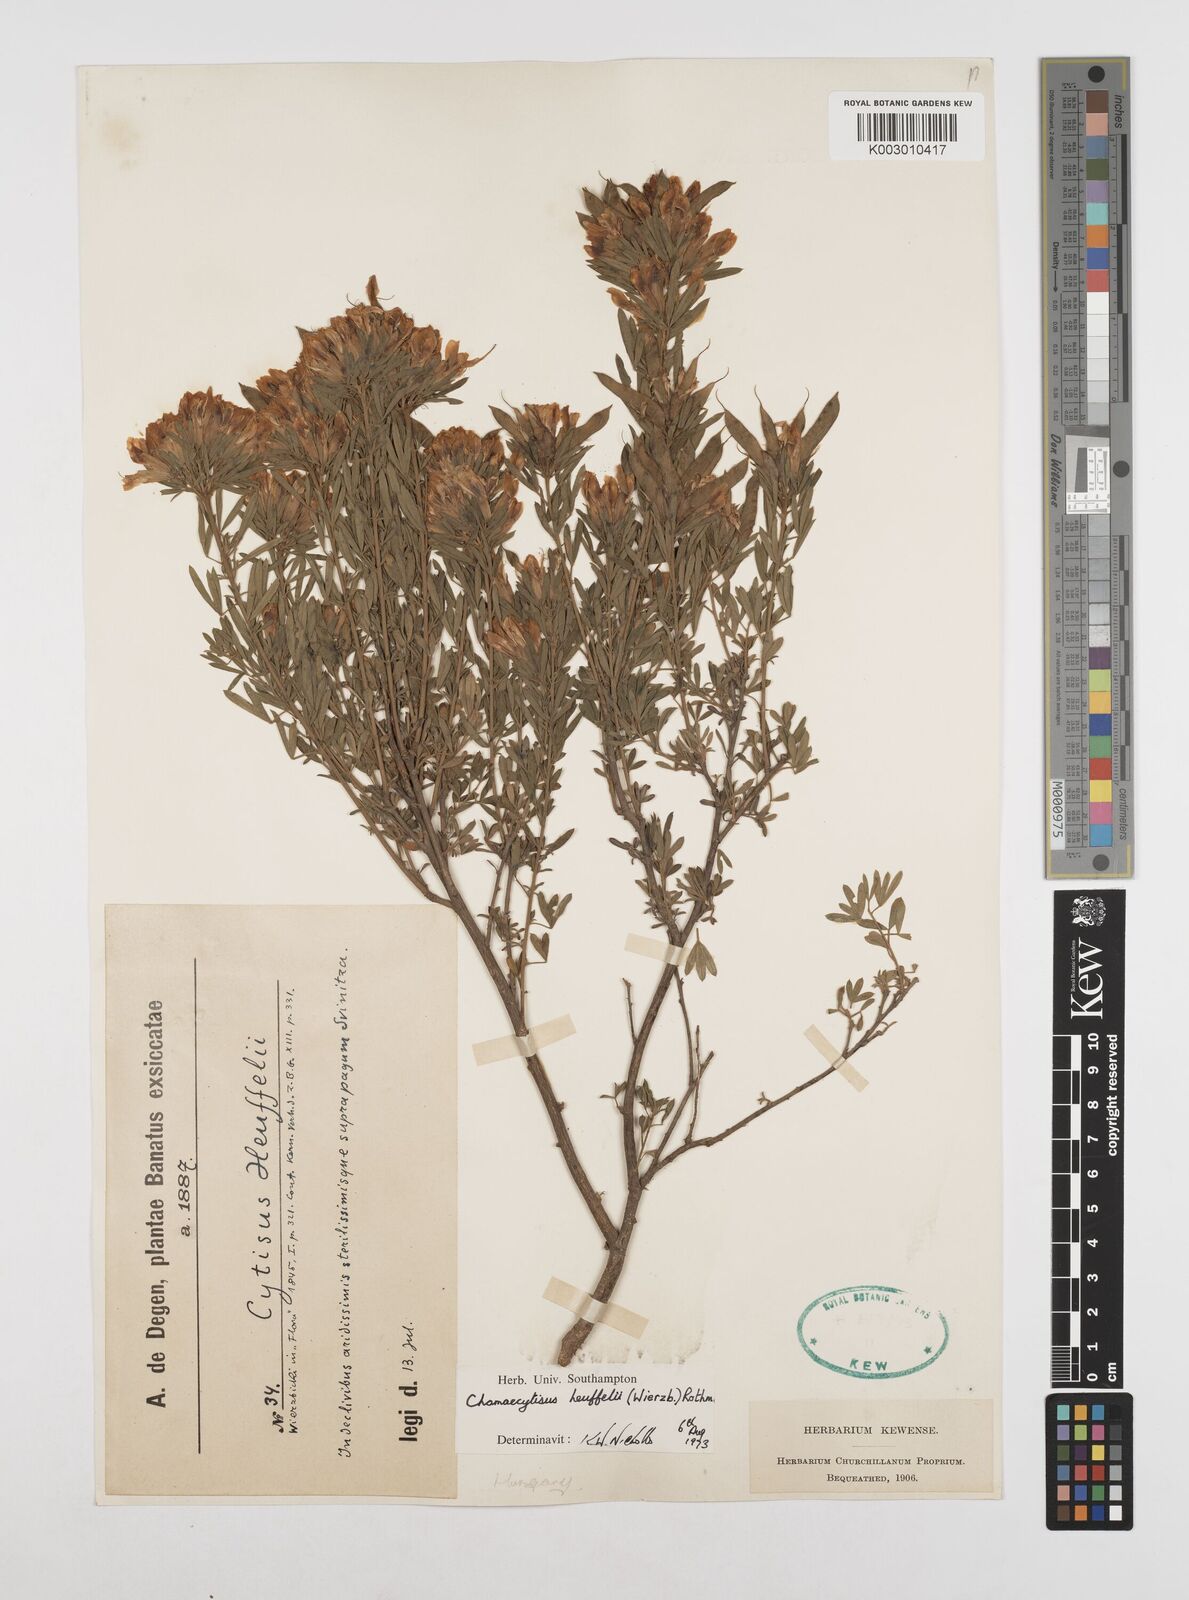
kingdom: Plantae
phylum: Tracheophyta
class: Magnoliopsida
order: Fabales
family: Fabaceae
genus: Cytisophyllum
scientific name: Cytisophyllum Cytisus heuffelii
